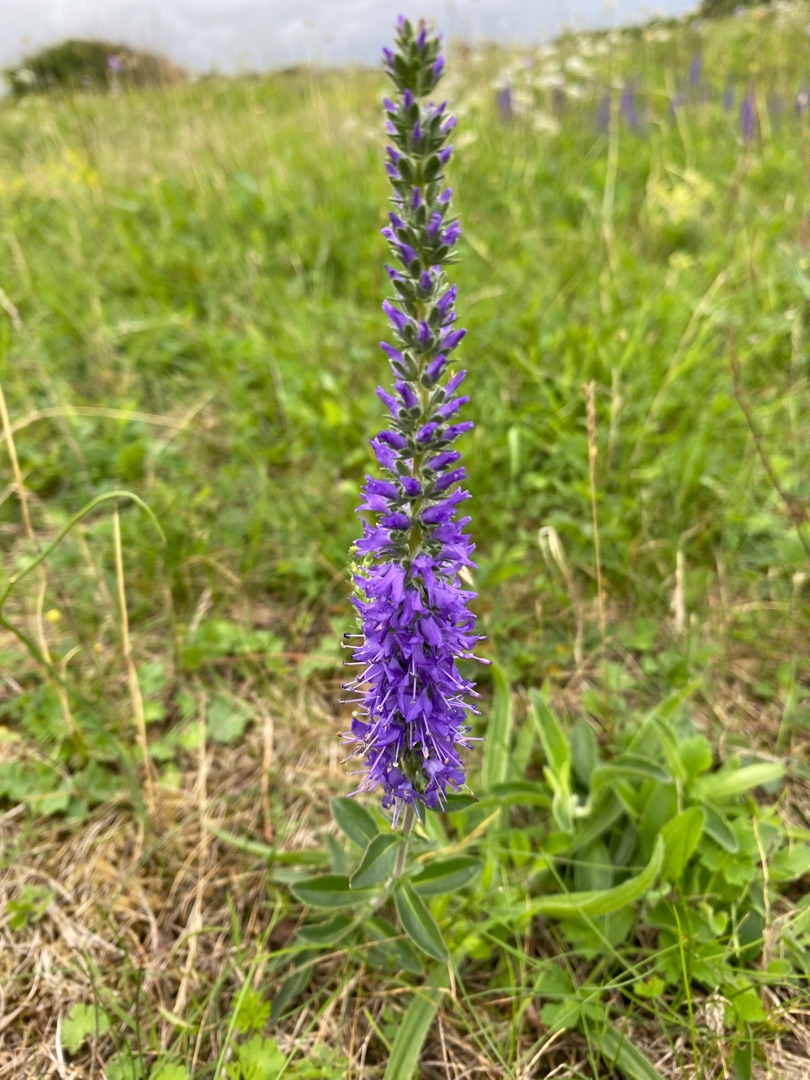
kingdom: Plantae
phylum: Tracheophyta
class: Magnoliopsida
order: Lamiales
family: Plantaginaceae
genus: Veronica
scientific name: Veronica spicata
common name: Aks-ærenpris
